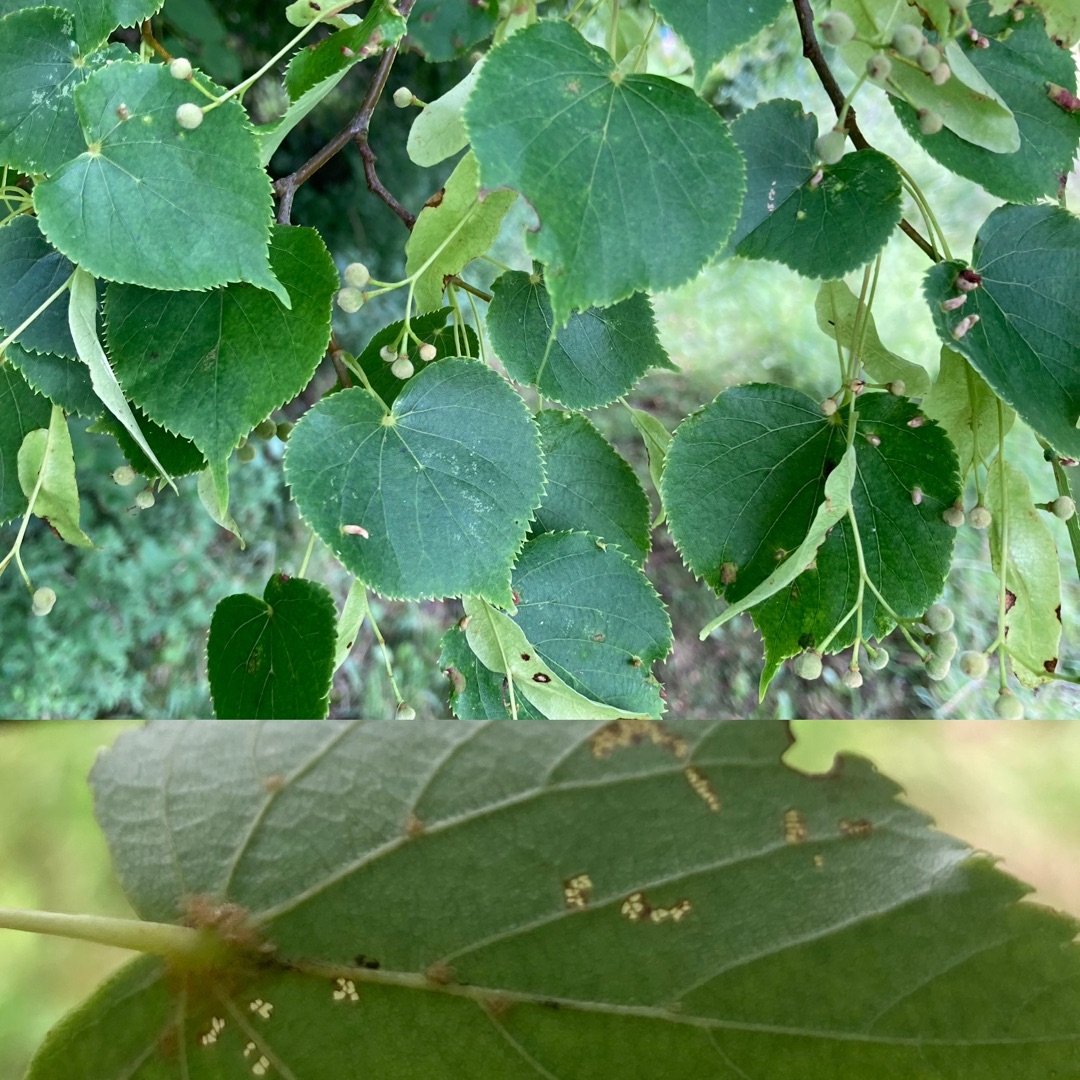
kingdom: Plantae
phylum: Tracheophyta
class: Magnoliopsida
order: Malvales
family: Malvaceae
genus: Tilia
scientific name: Tilia cordata
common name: Småbladet lind
